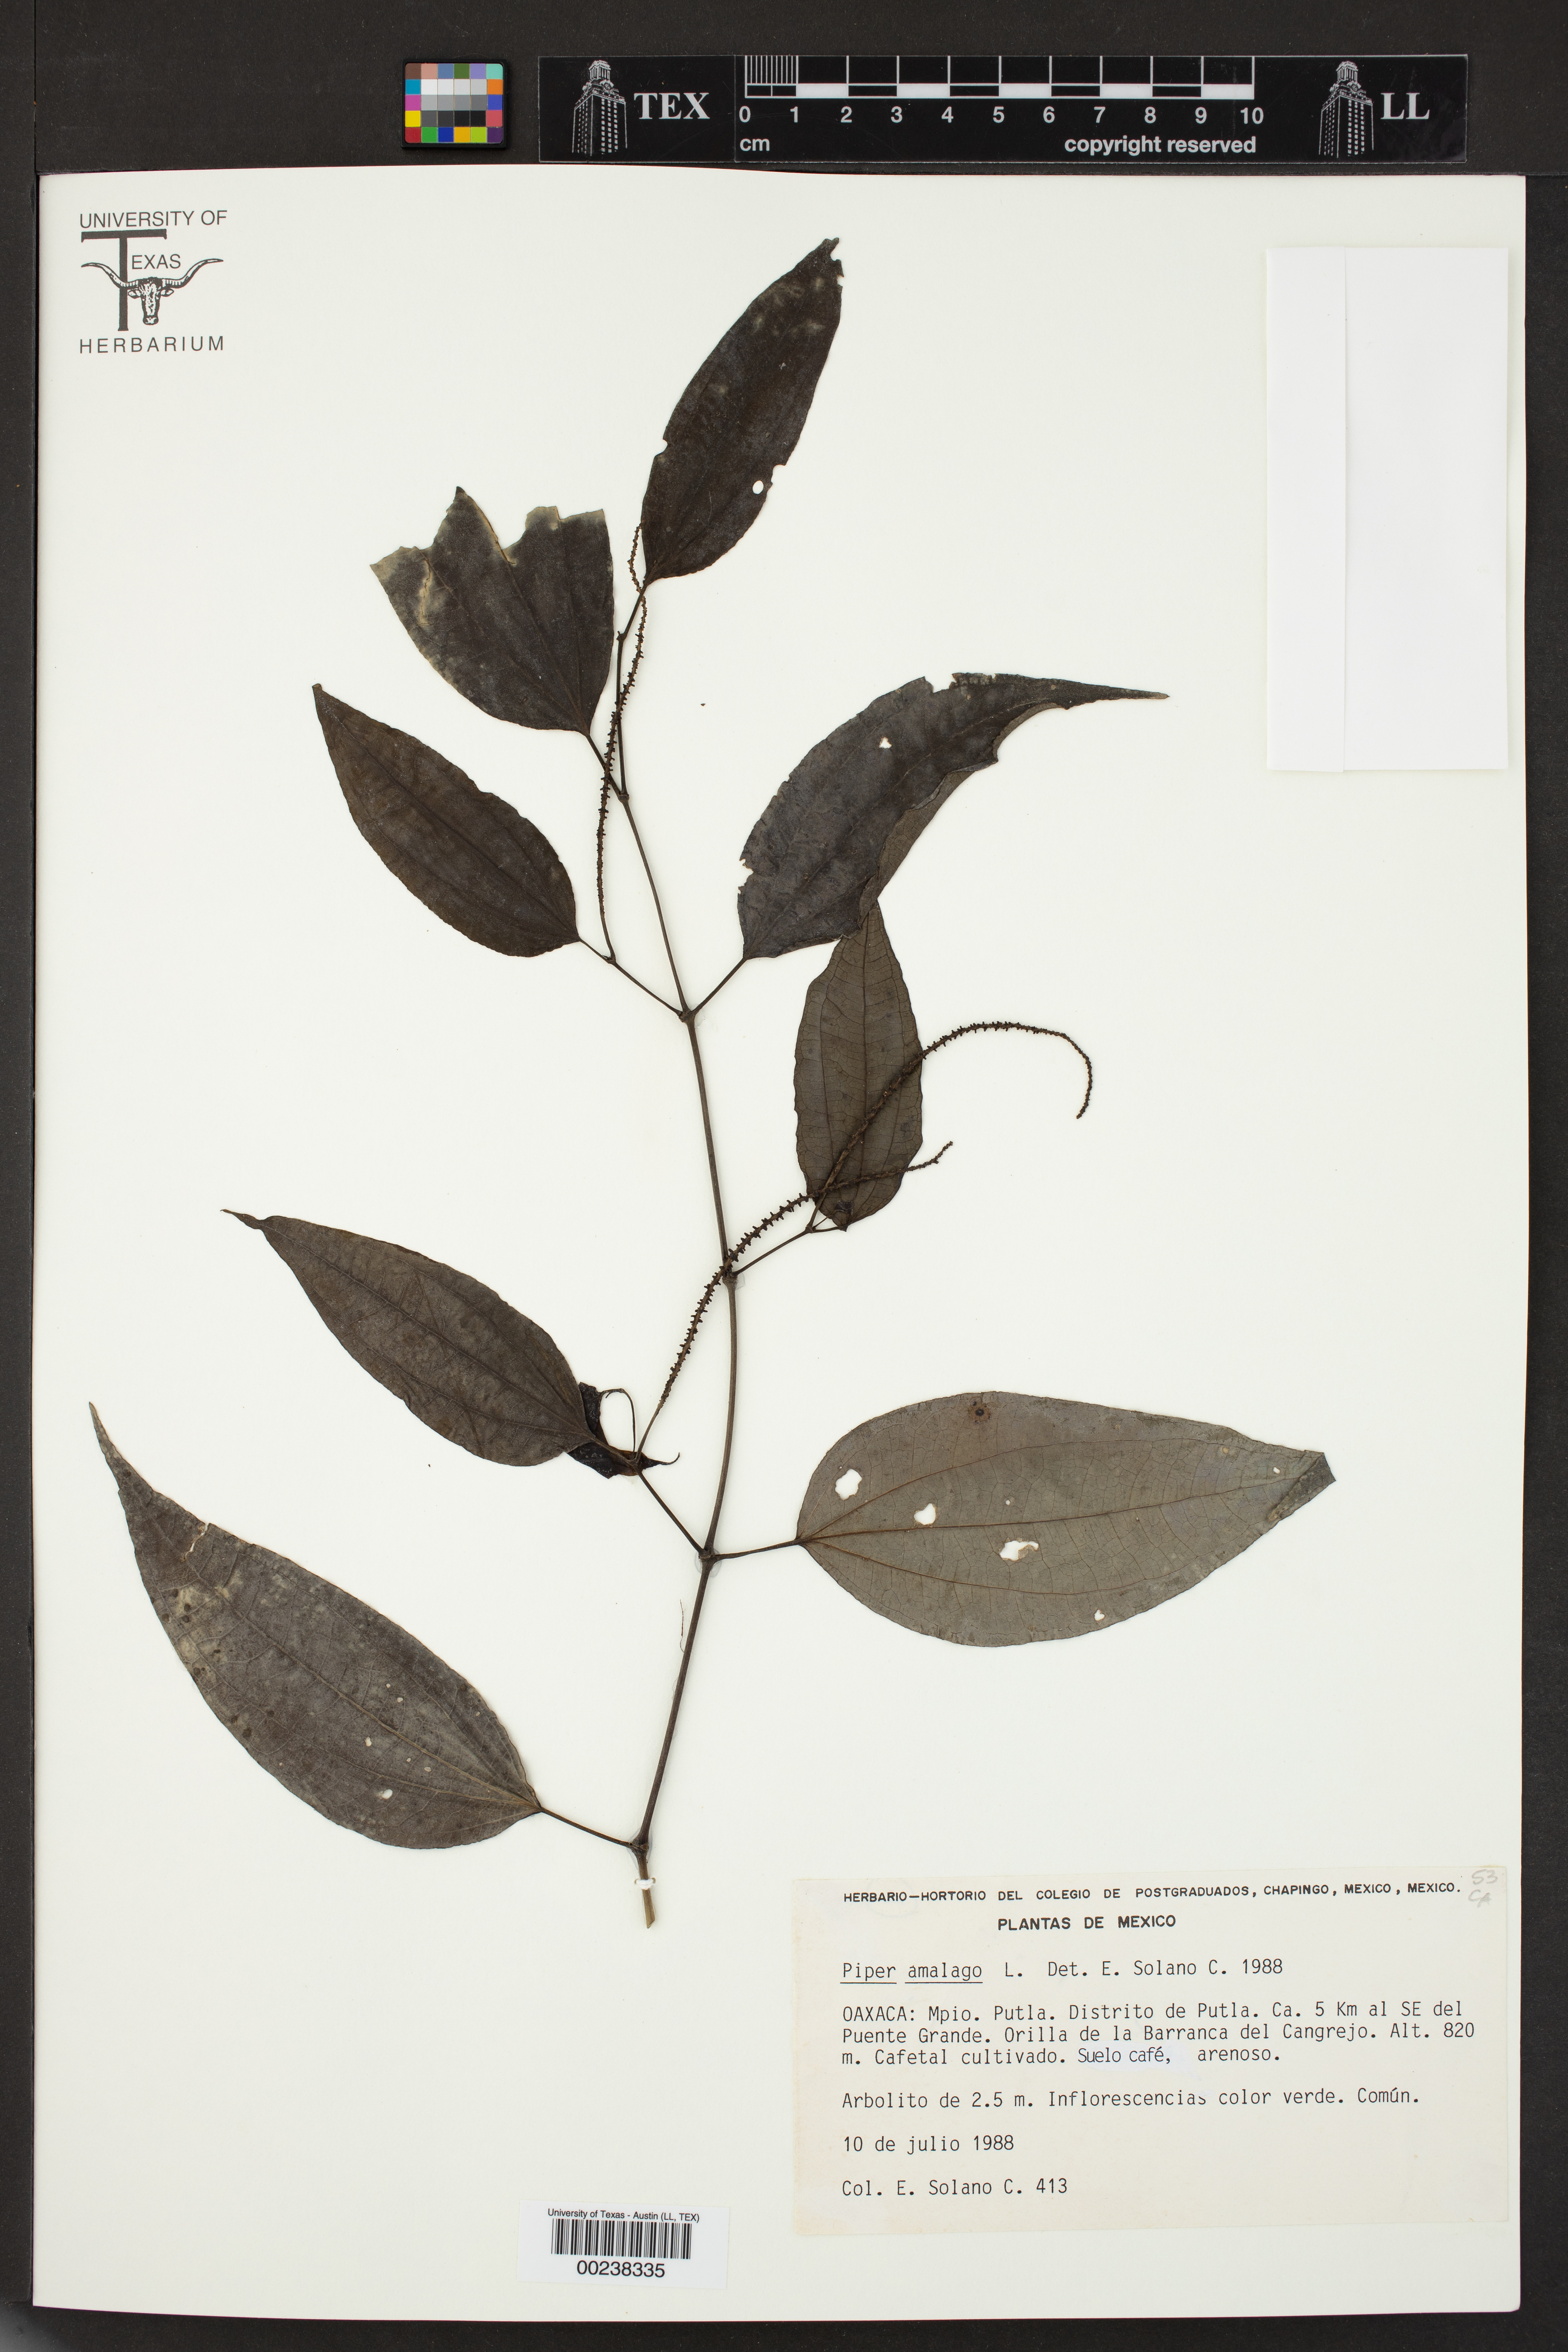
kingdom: Plantae
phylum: Tracheophyta
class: Magnoliopsida
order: Piperales
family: Piperaceae
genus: Piper
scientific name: Piper amalago
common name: Pepper-elder
